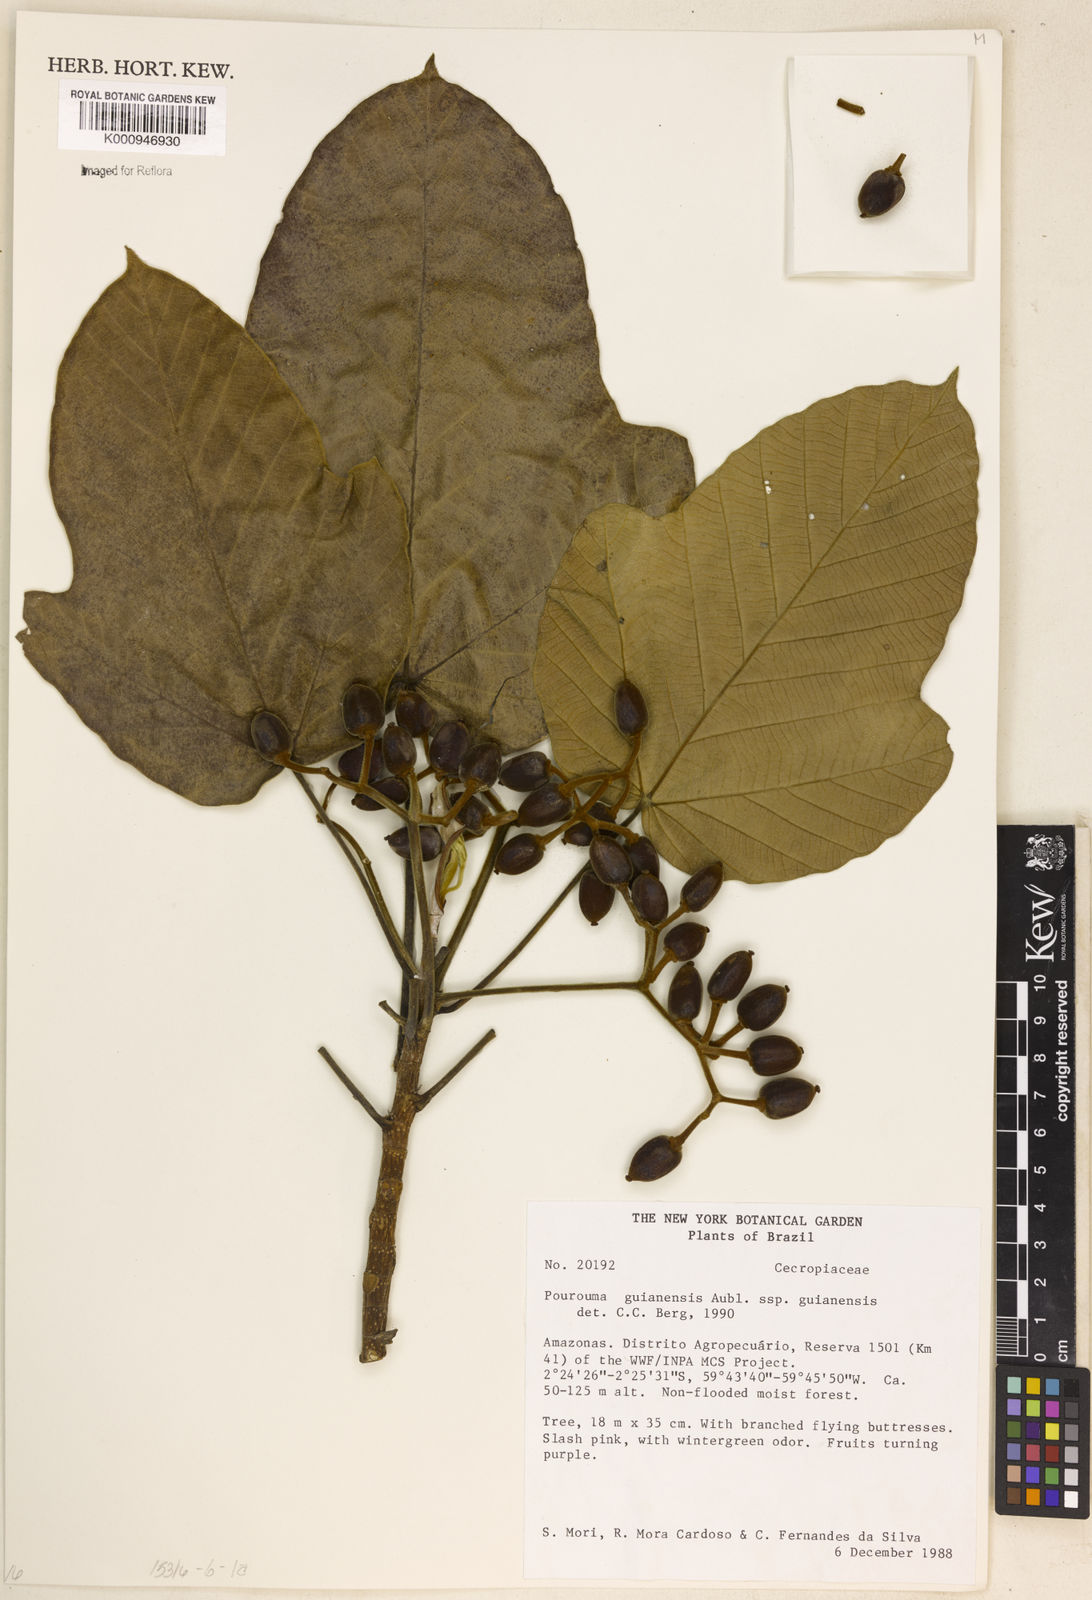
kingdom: Plantae
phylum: Tracheophyta
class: Magnoliopsida
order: Rosales
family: Urticaceae
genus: Pourouma
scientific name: Pourouma guianensis
